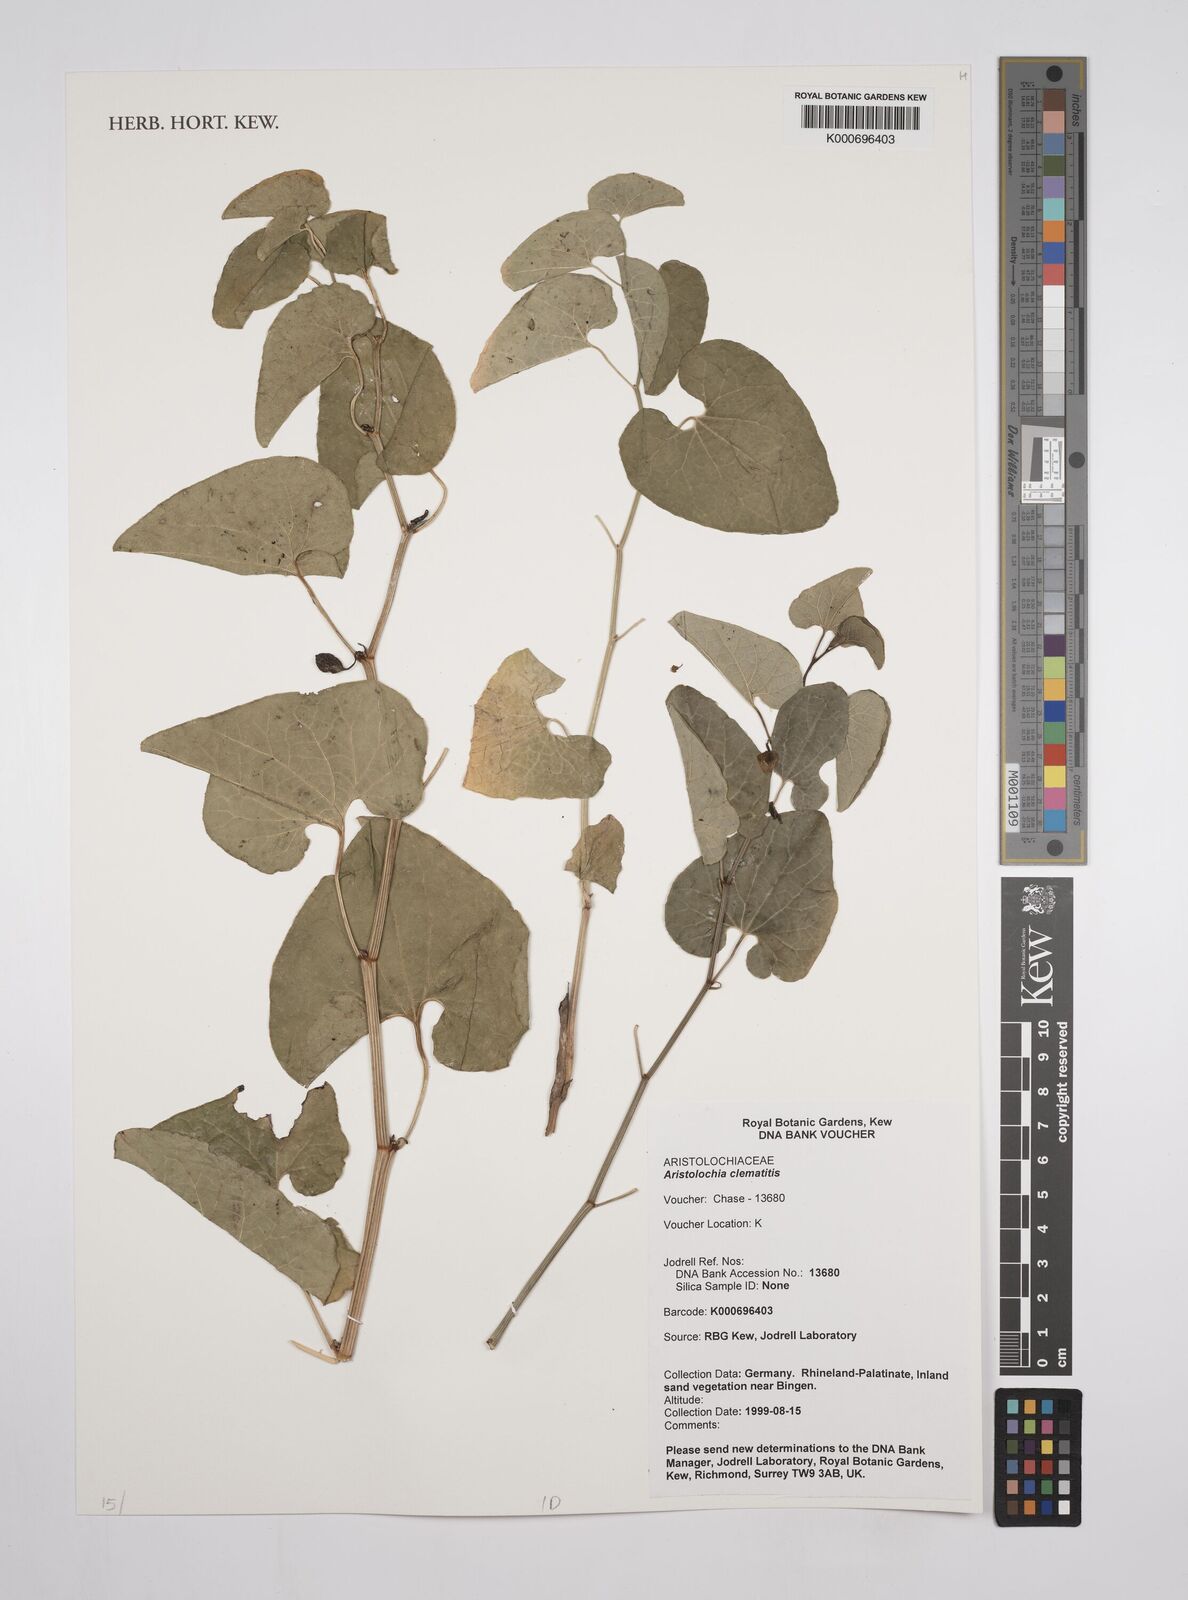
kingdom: Plantae
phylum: Tracheophyta
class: Magnoliopsida
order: Piperales
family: Aristolochiaceae
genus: Aristolochia
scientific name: Aristolochia clematitis
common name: Birthwort
